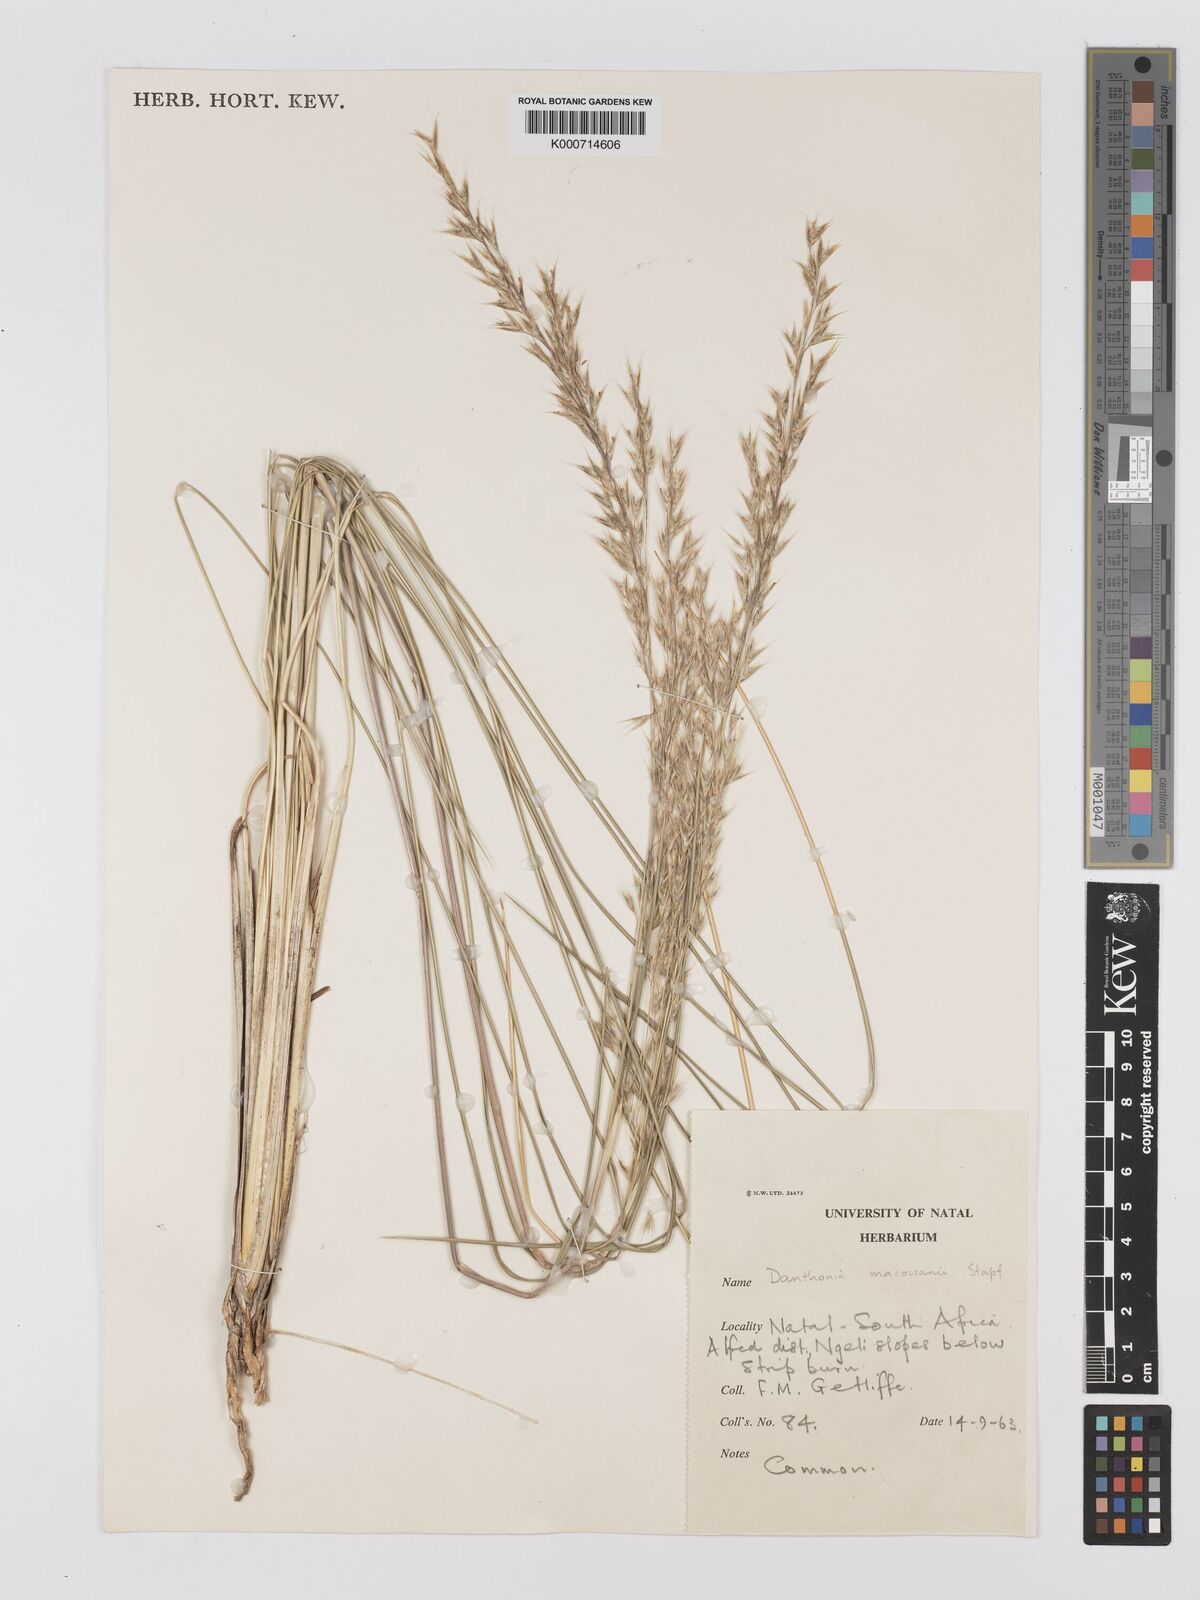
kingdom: Plantae
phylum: Tracheophyta
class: Liliopsida
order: Poales
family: Poaceae
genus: Rytidosperma
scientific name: Rytidosperma
